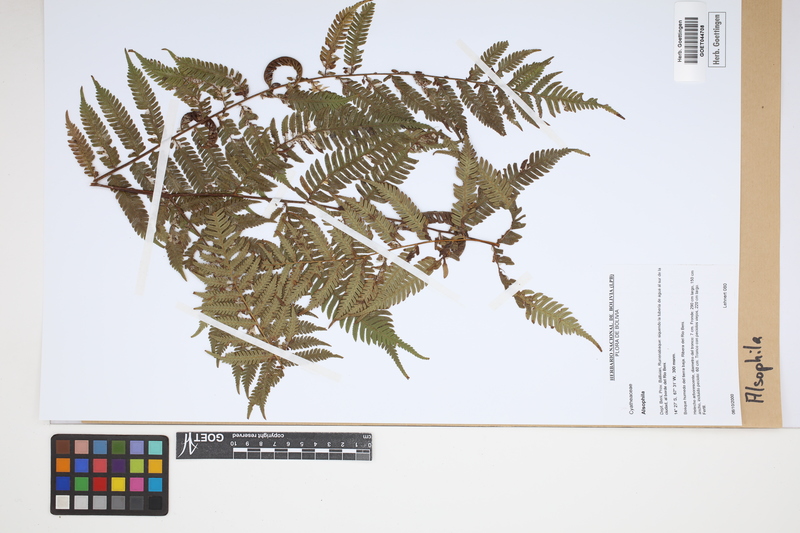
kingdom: Plantae
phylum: Tracheophyta
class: Polypodiopsida
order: Cyatheales
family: Cyatheaceae
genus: Alsophila
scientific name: Alsophila
